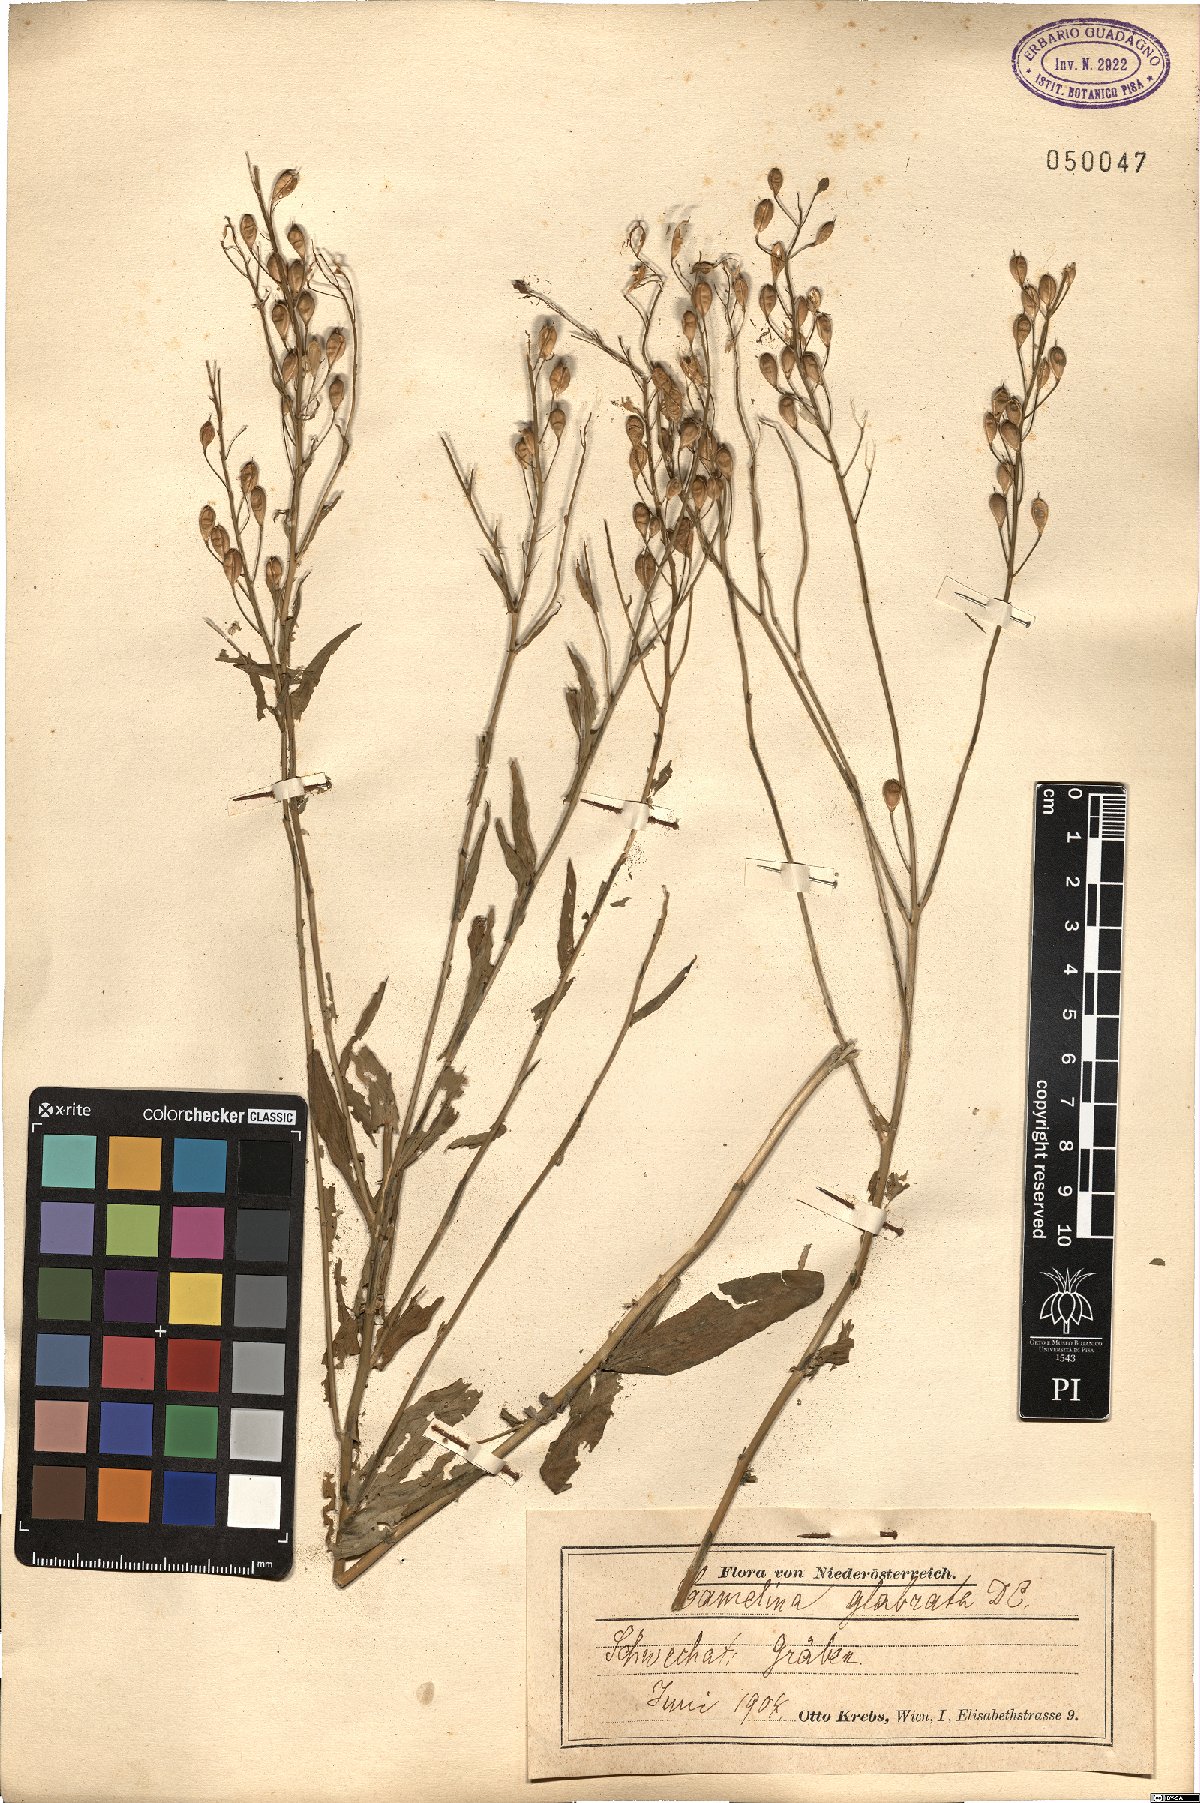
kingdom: Plantae
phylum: Tracheophyta
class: Magnoliopsida
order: Brassicales
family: Brassicaceae
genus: Camelina
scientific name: Camelina sativa
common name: Gold-of-pleasure
